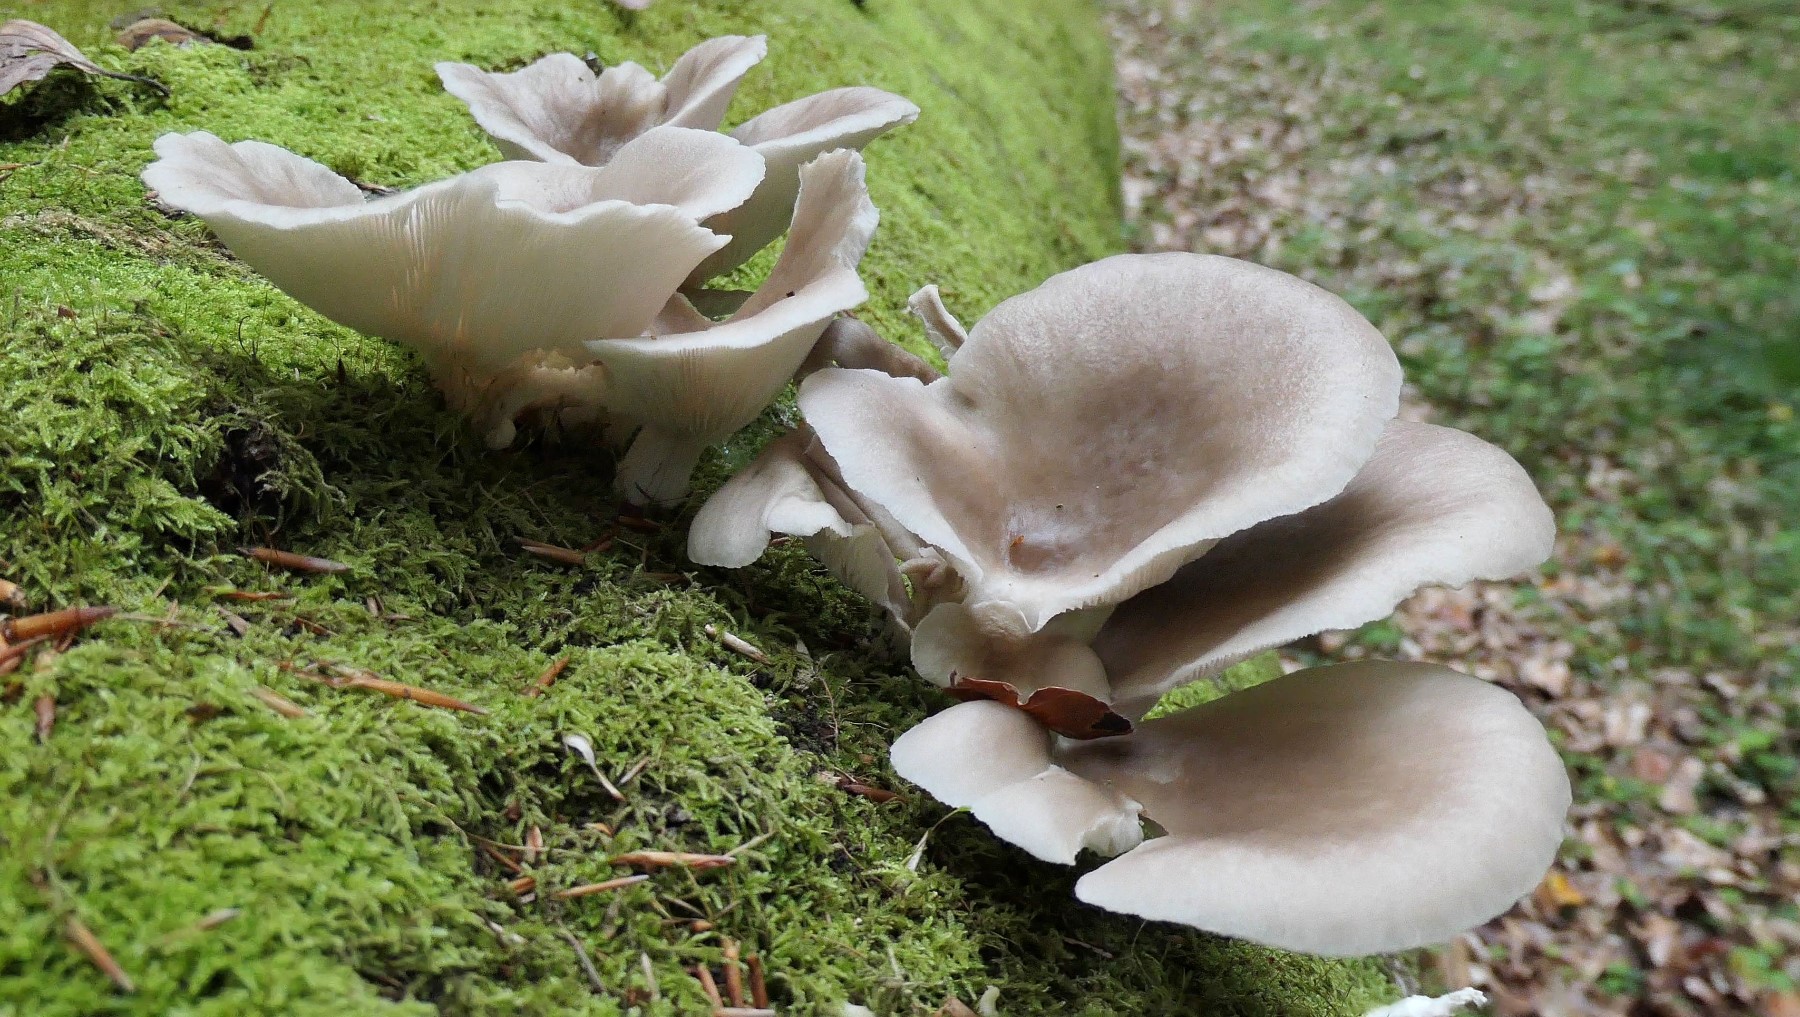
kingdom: Fungi
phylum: Basidiomycota
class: Agaricomycetes
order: Agaricales
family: Pleurotaceae
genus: Pleurotus
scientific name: Pleurotus pulmonarius
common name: sommer-østershat
